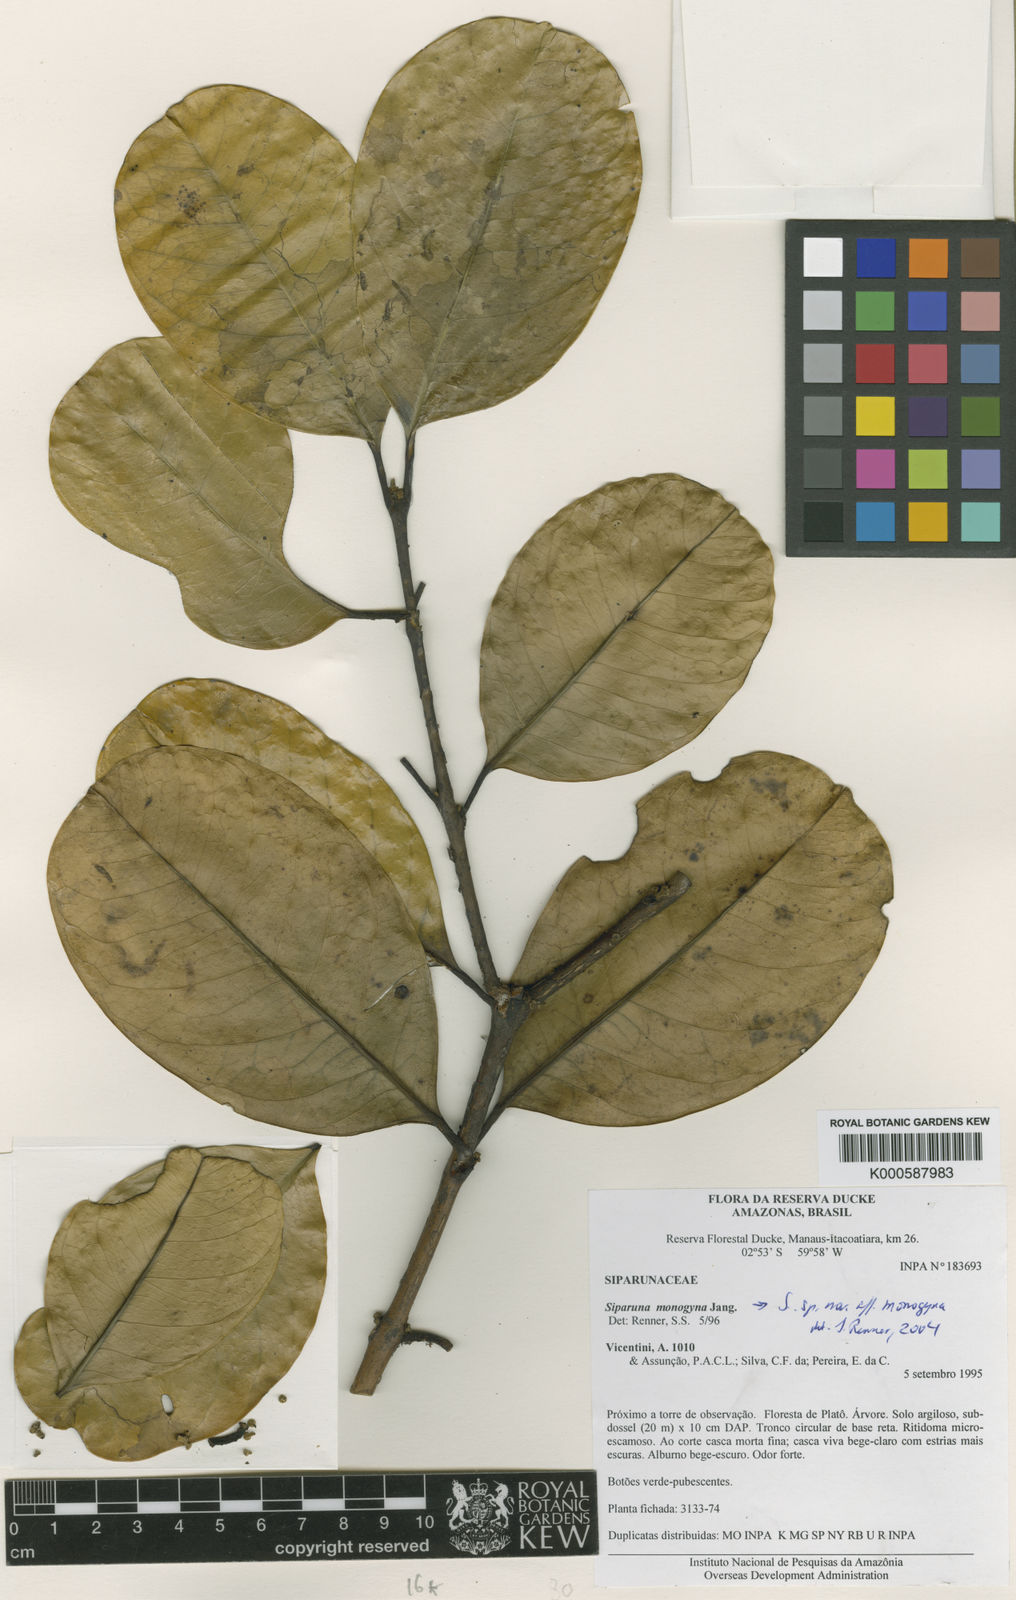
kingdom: Plantae
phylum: Tracheophyta
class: Magnoliopsida
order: Laurales
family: Siparunaceae
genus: Siparuna
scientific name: Siparuna cristata
